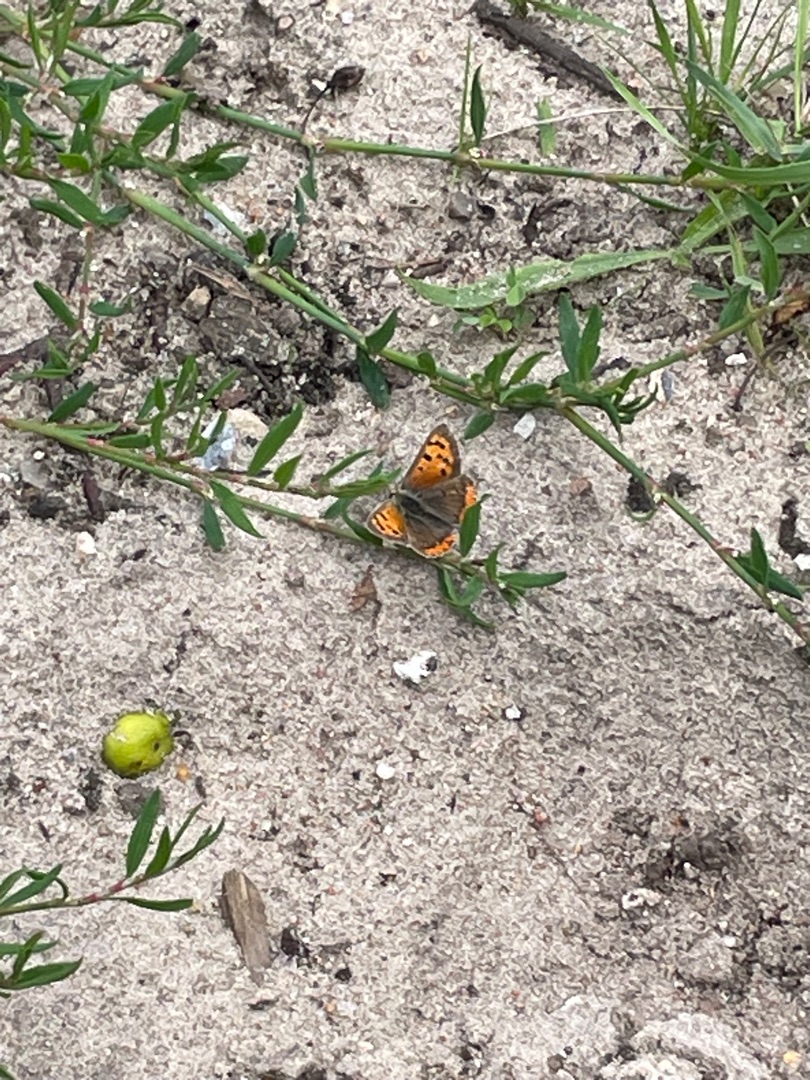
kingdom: Animalia
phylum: Arthropoda
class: Insecta
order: Lepidoptera
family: Lycaenidae
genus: Lycaena
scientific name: Lycaena phlaeas
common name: Lille ildfugl
